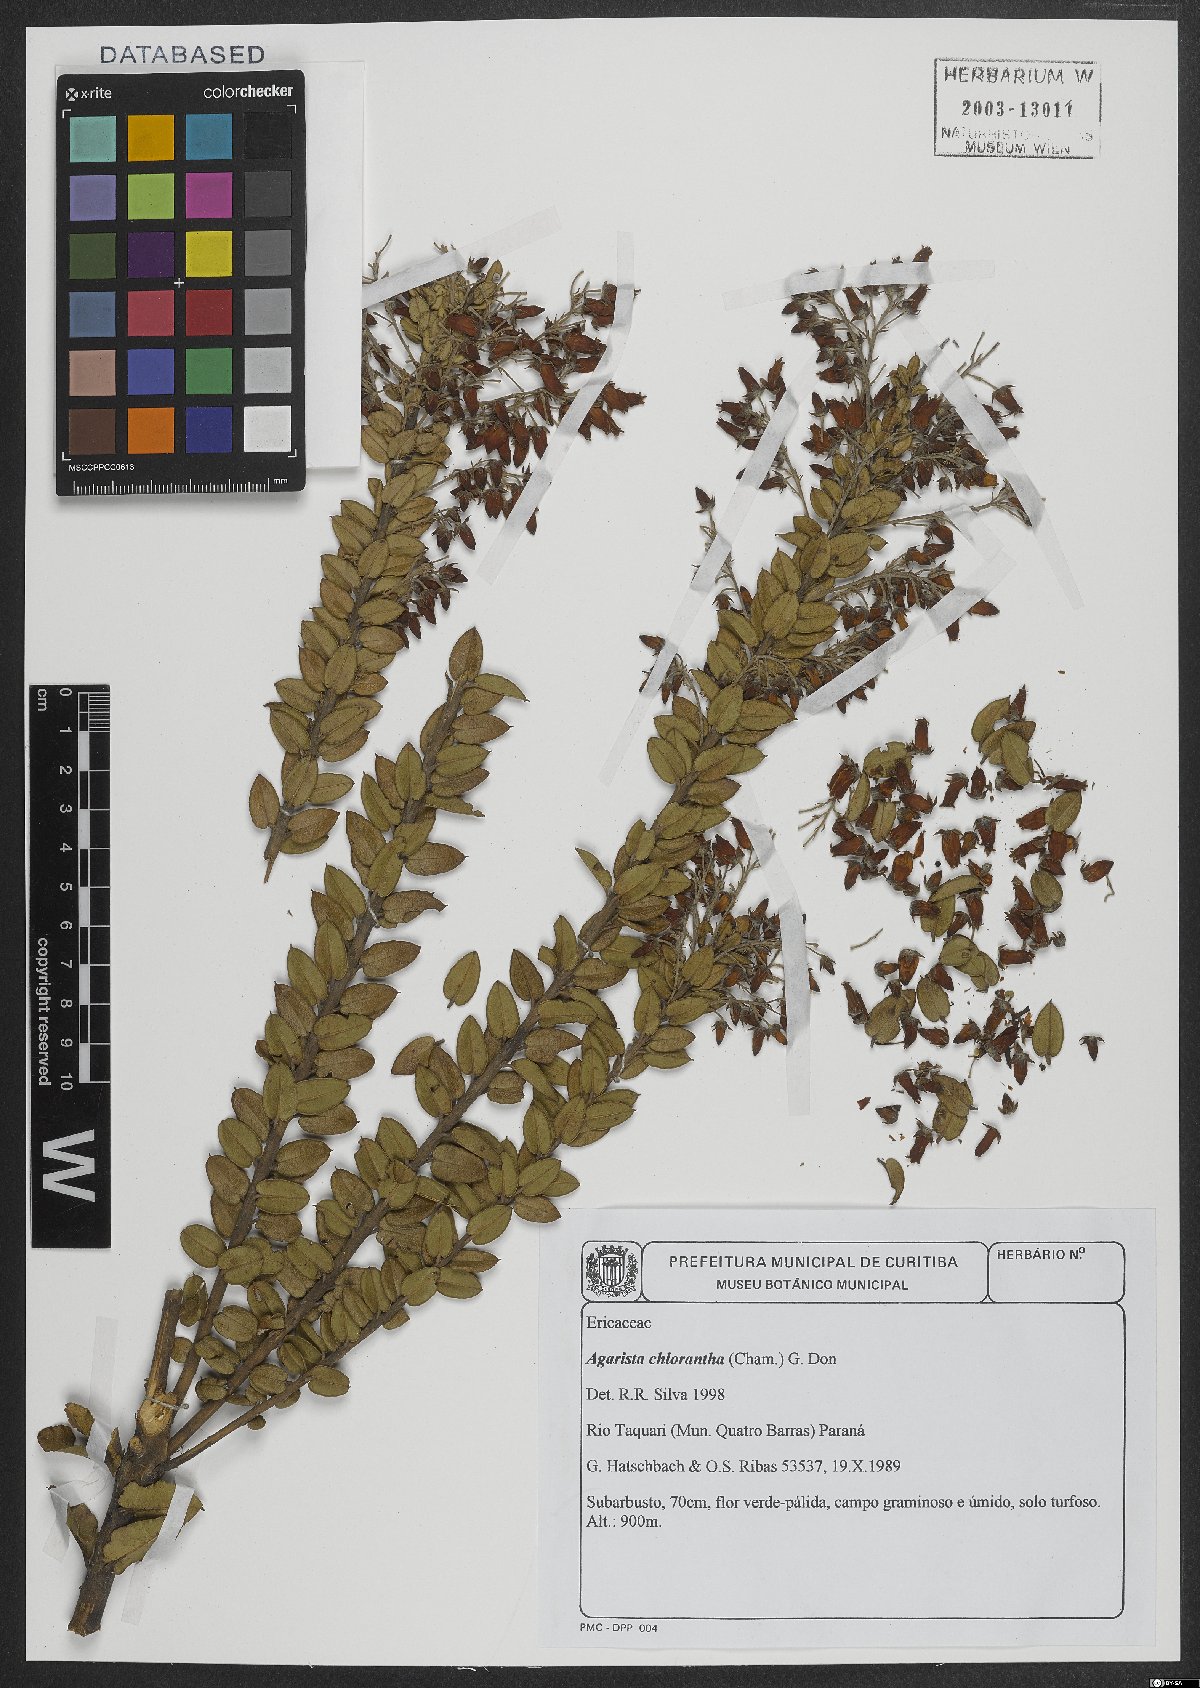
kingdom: Plantae
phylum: Tracheophyta
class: Magnoliopsida
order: Ericales
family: Ericaceae
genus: Agarista
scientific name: Agarista chlorantha
